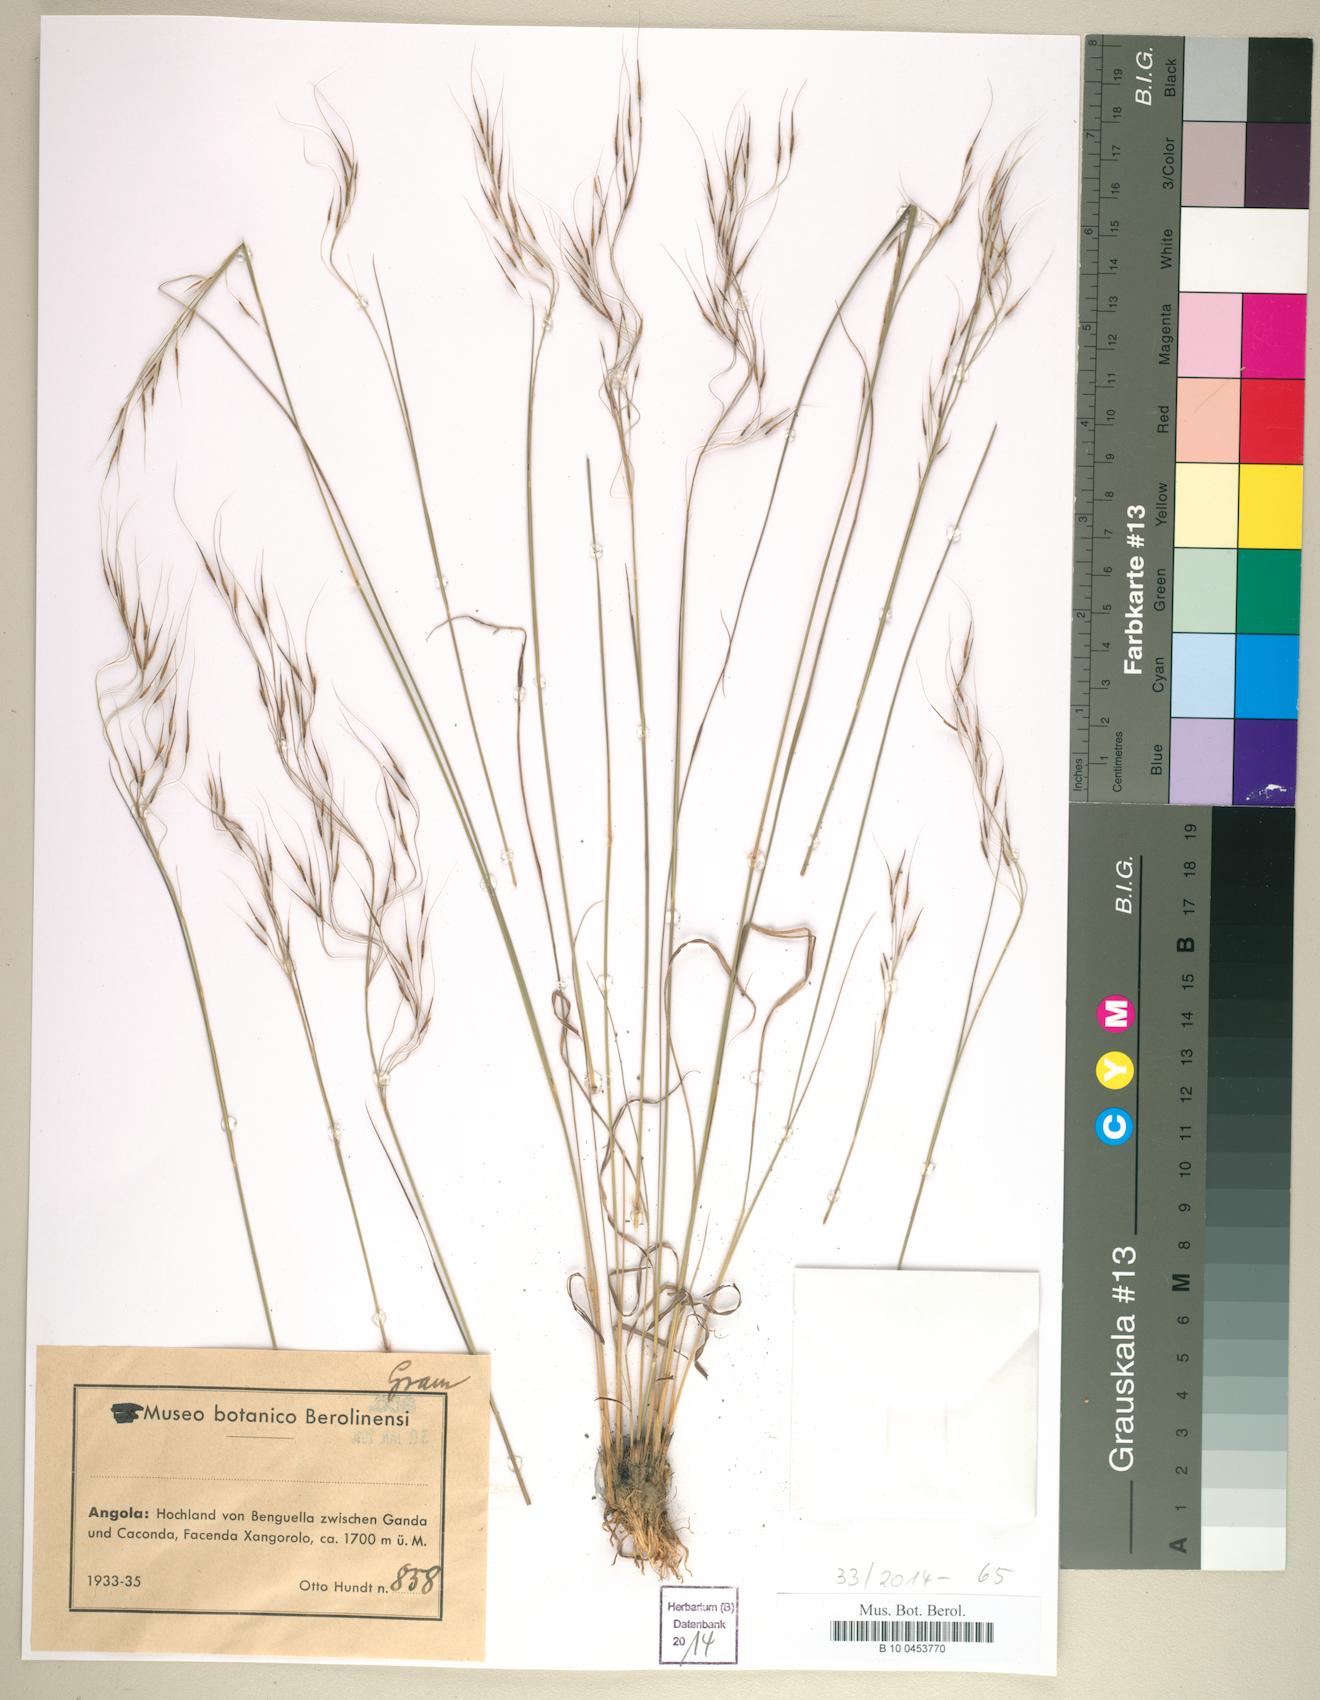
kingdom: Plantae
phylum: Tracheophyta
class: Liliopsida
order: Poales
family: Poaceae
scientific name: Poaceae
